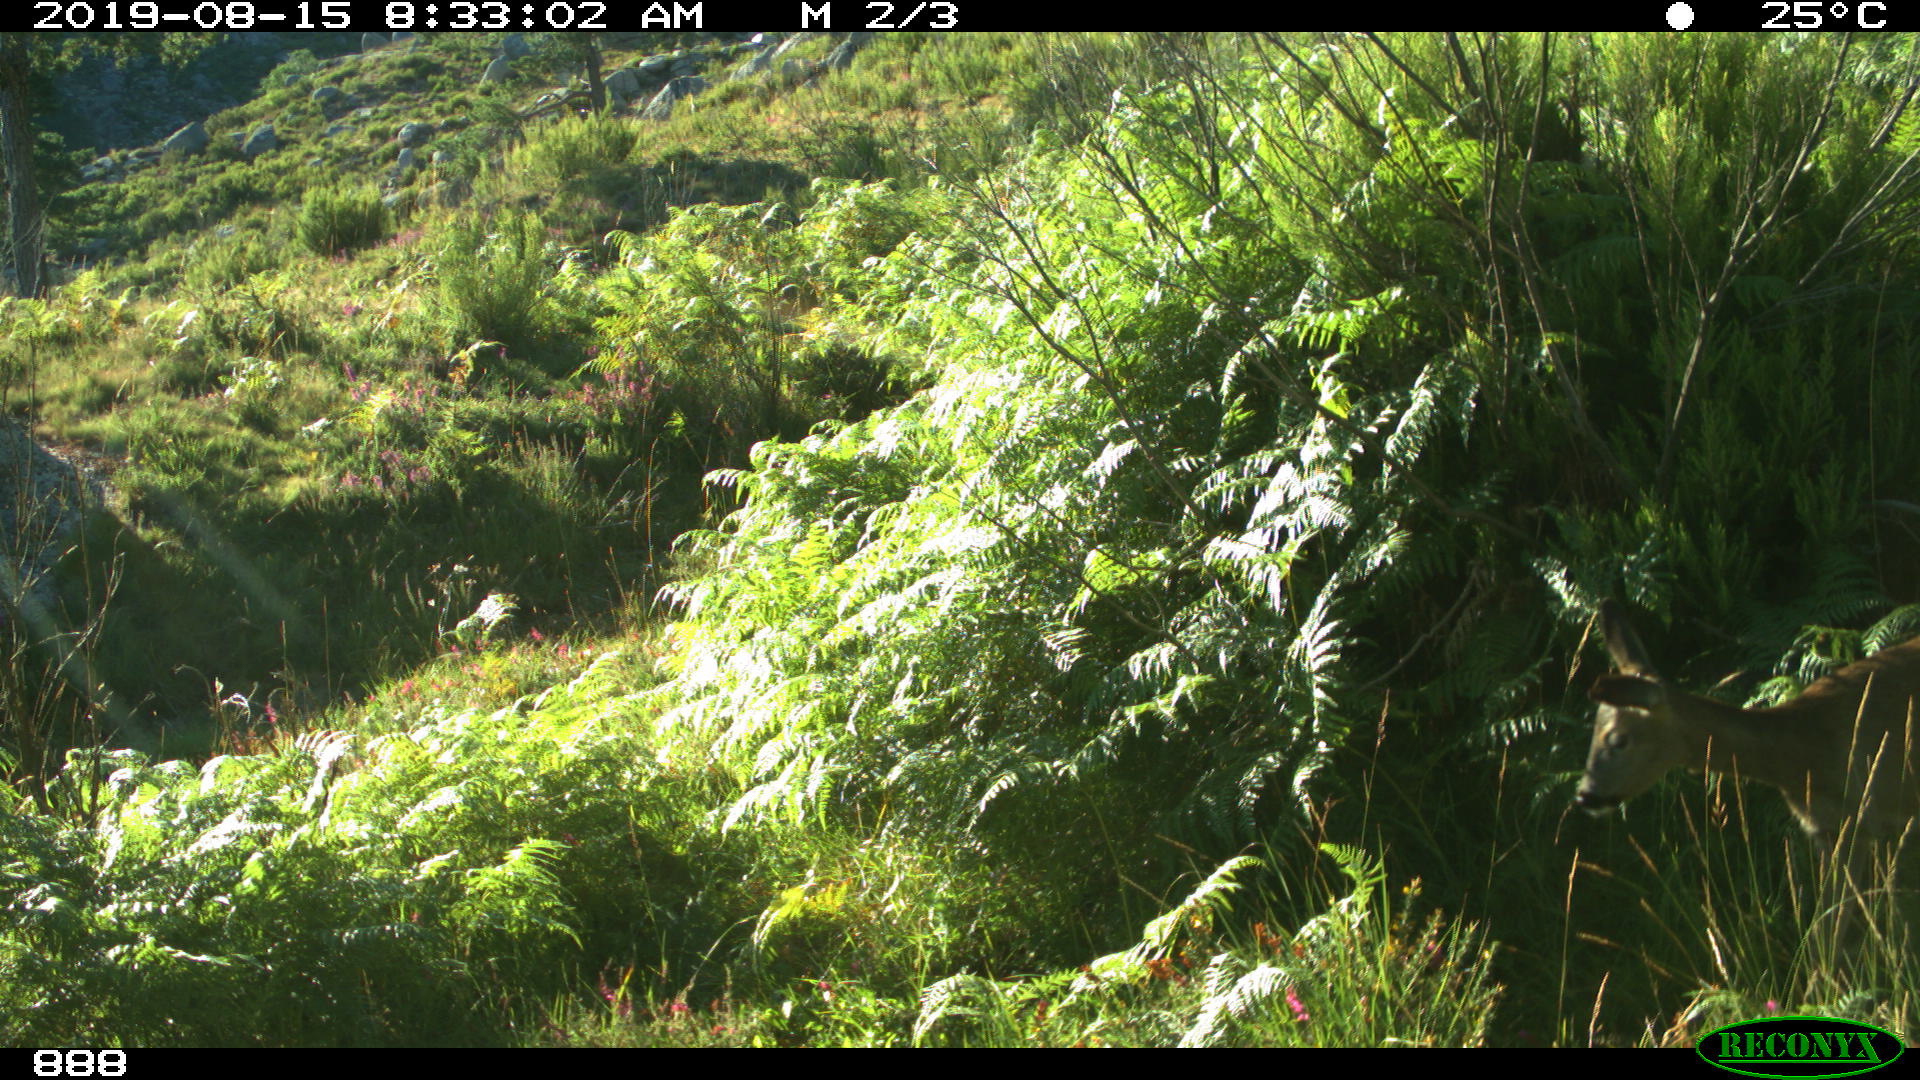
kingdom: Animalia
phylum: Chordata
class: Mammalia
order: Artiodactyla
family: Cervidae
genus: Capreolus
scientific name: Capreolus capreolus
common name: Western roe deer
